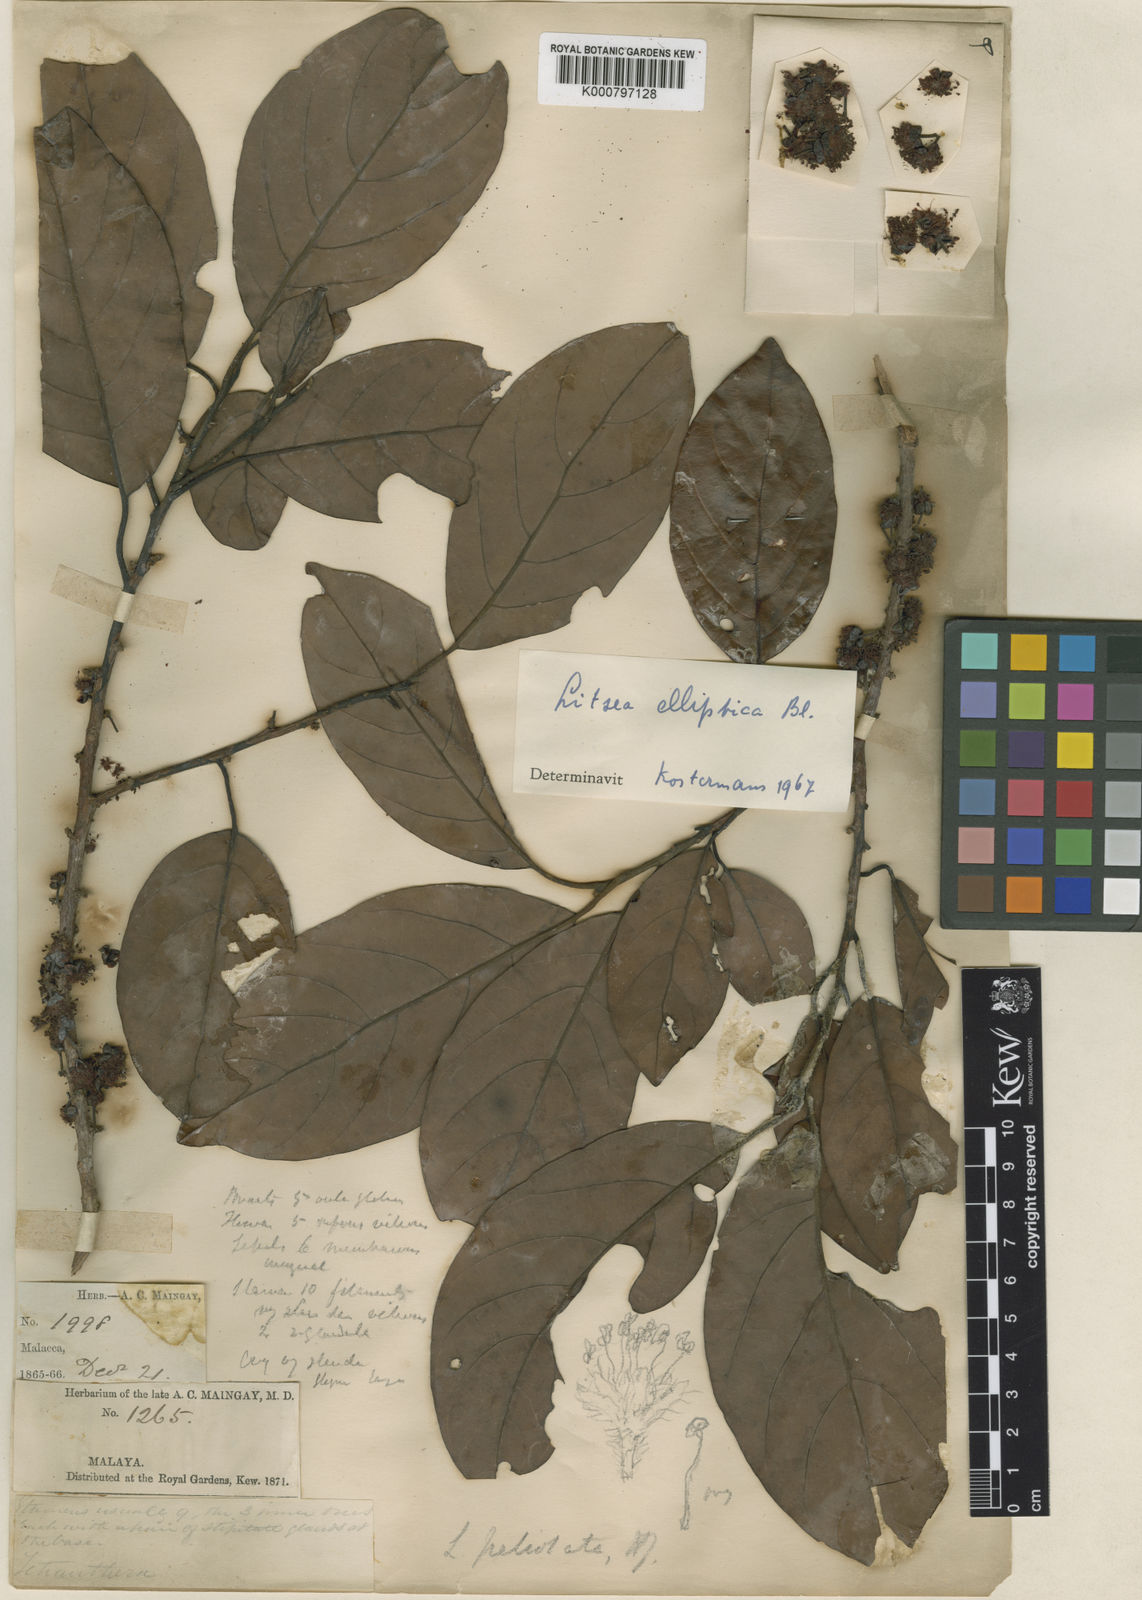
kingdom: Plantae
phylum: Tracheophyta
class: Magnoliopsida
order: Laurales
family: Lauraceae
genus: Litsea
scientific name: Litsea elliptica
